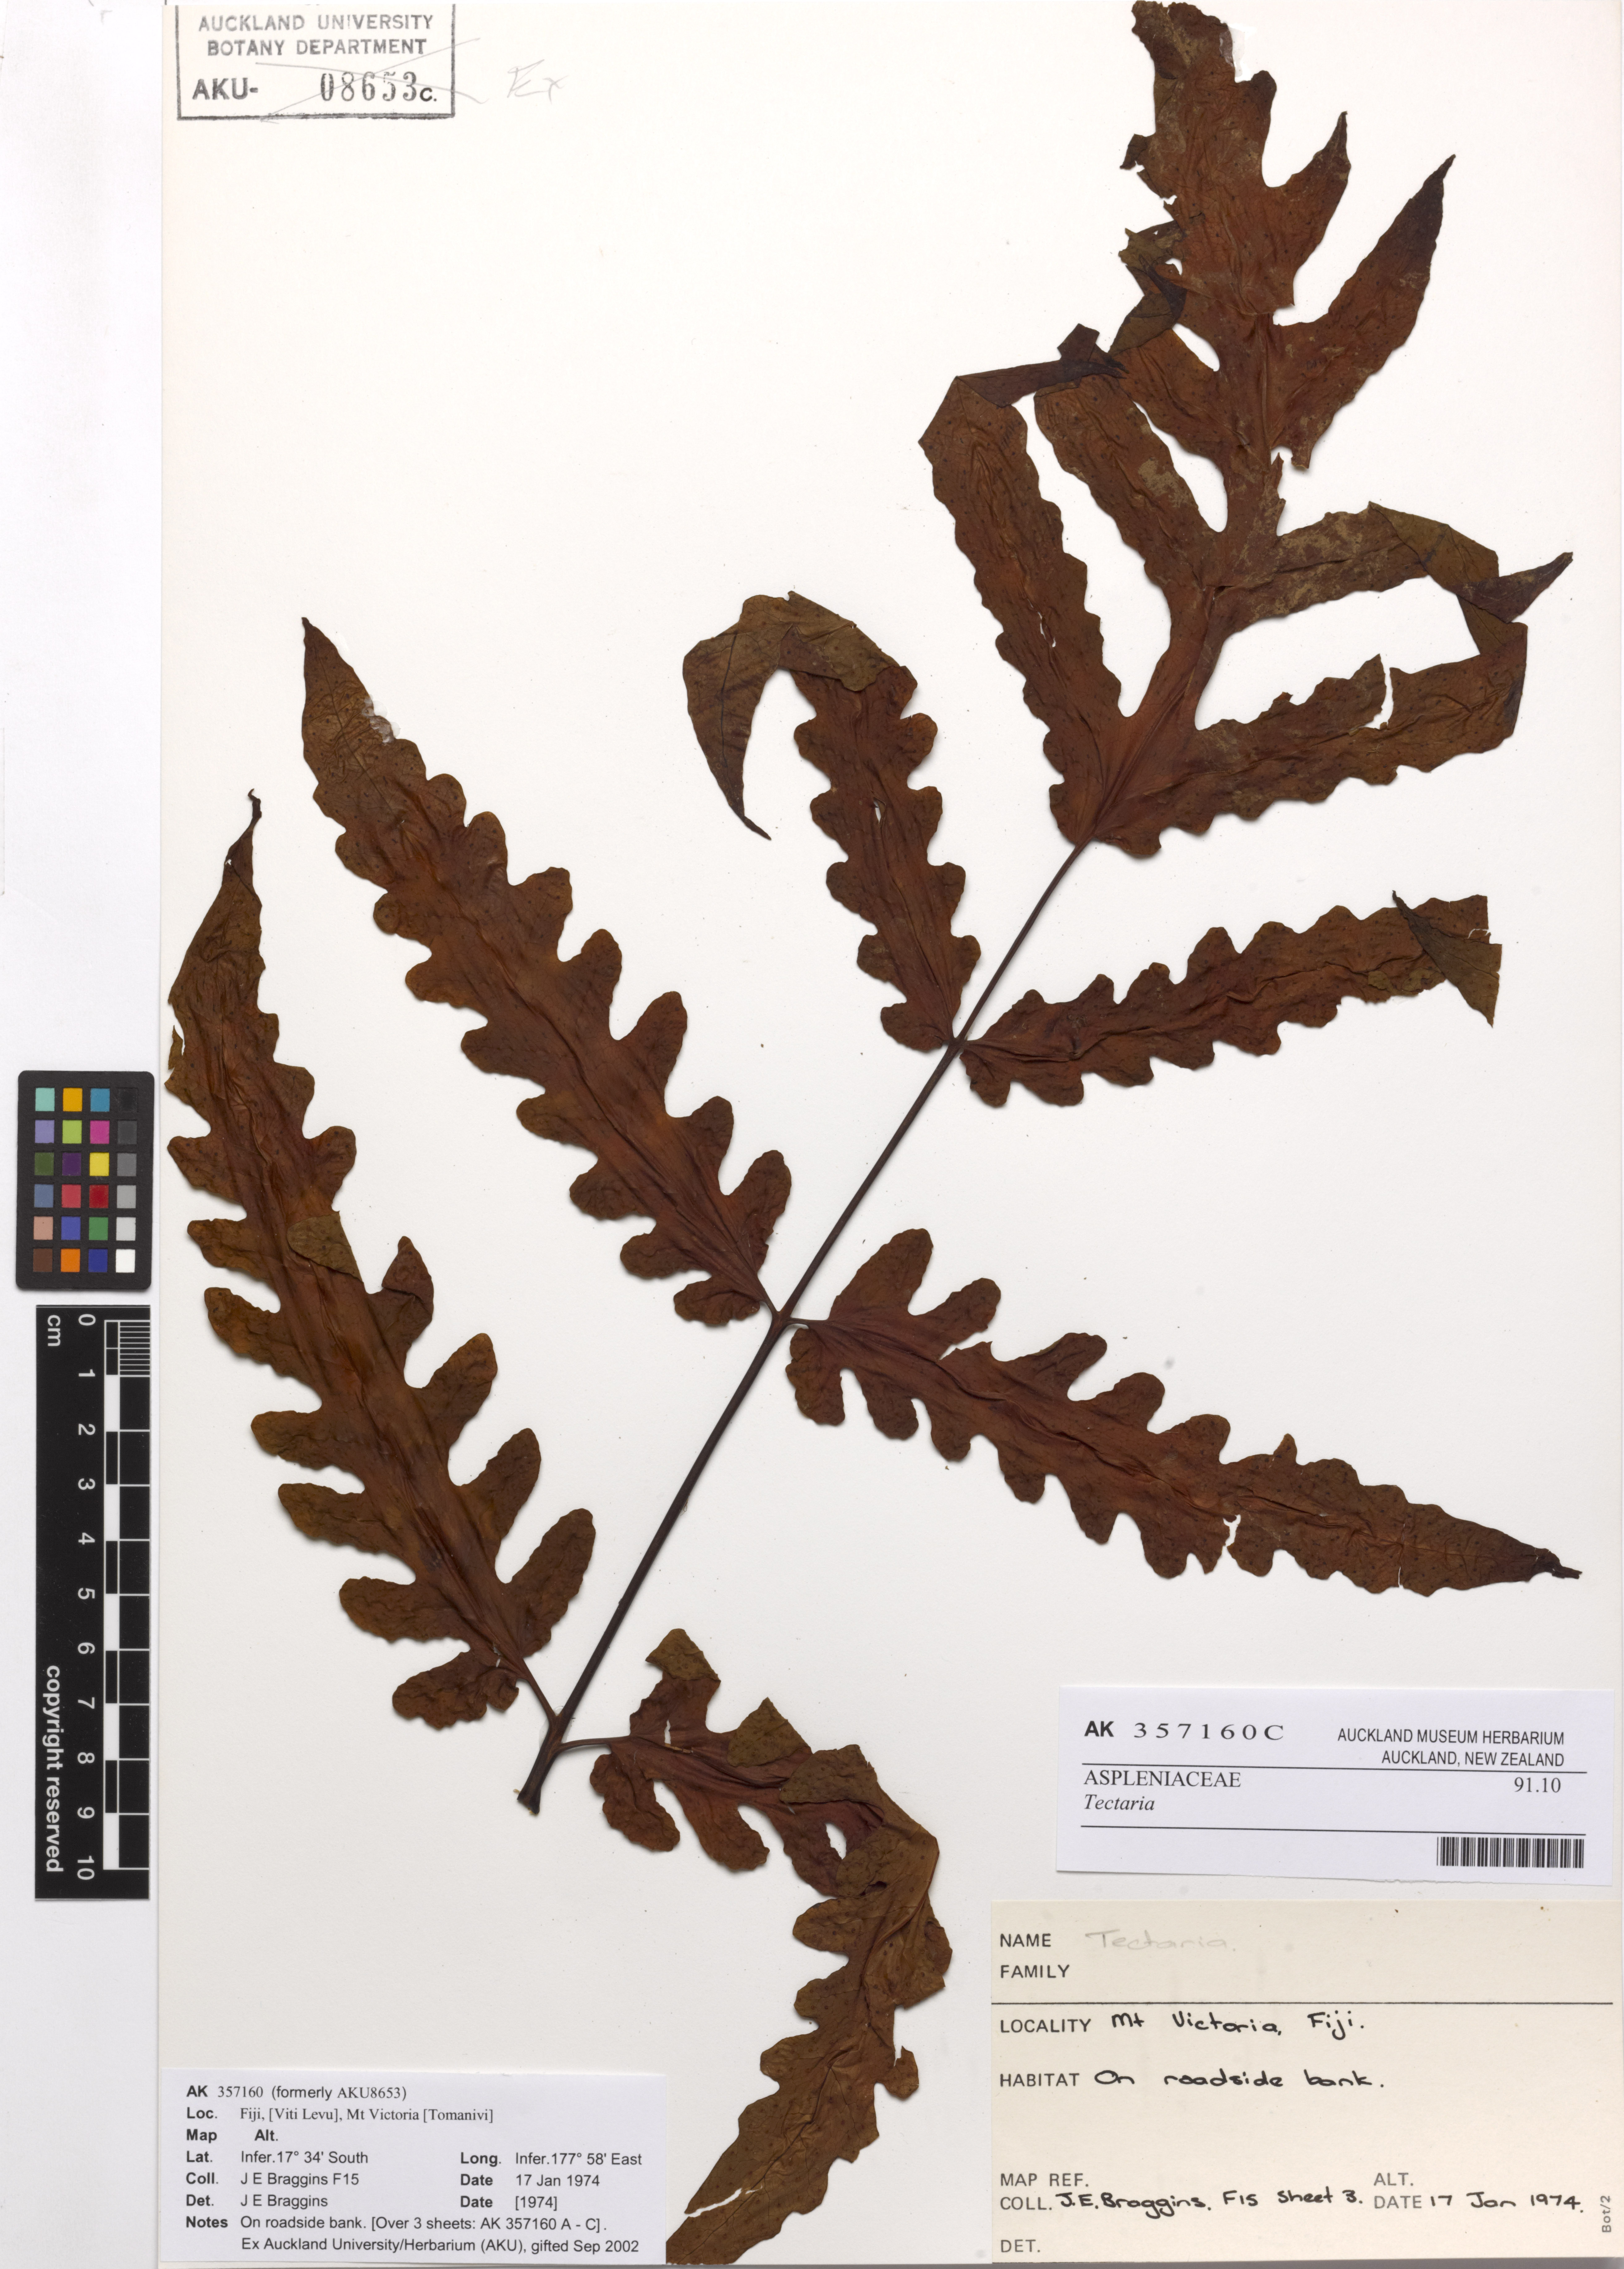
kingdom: Plantae
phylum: Tracheophyta
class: Polypodiopsida
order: Polypodiales
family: Tectariaceae
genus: Tectaria
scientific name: Tectaria
